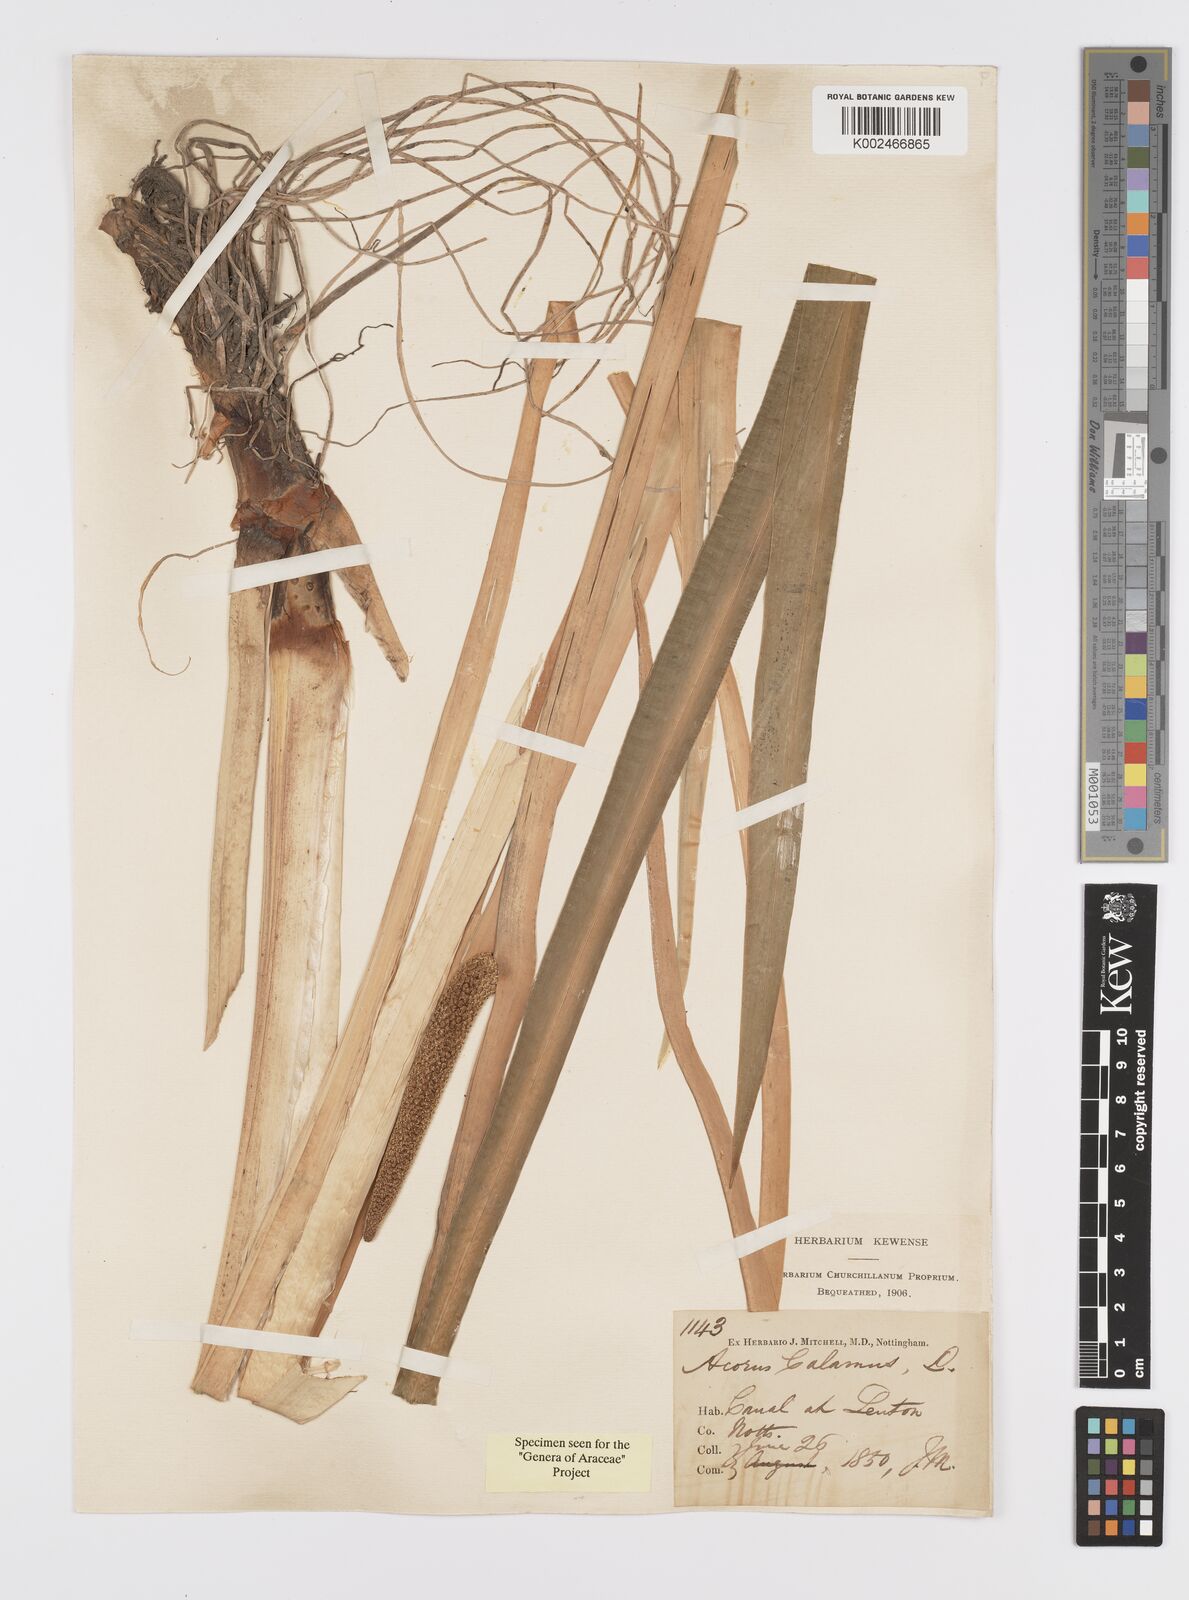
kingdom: Plantae
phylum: Tracheophyta
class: Liliopsida
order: Acorales
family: Acoraceae
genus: Acorus
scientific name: Acorus calamus
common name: Sweet-flag
